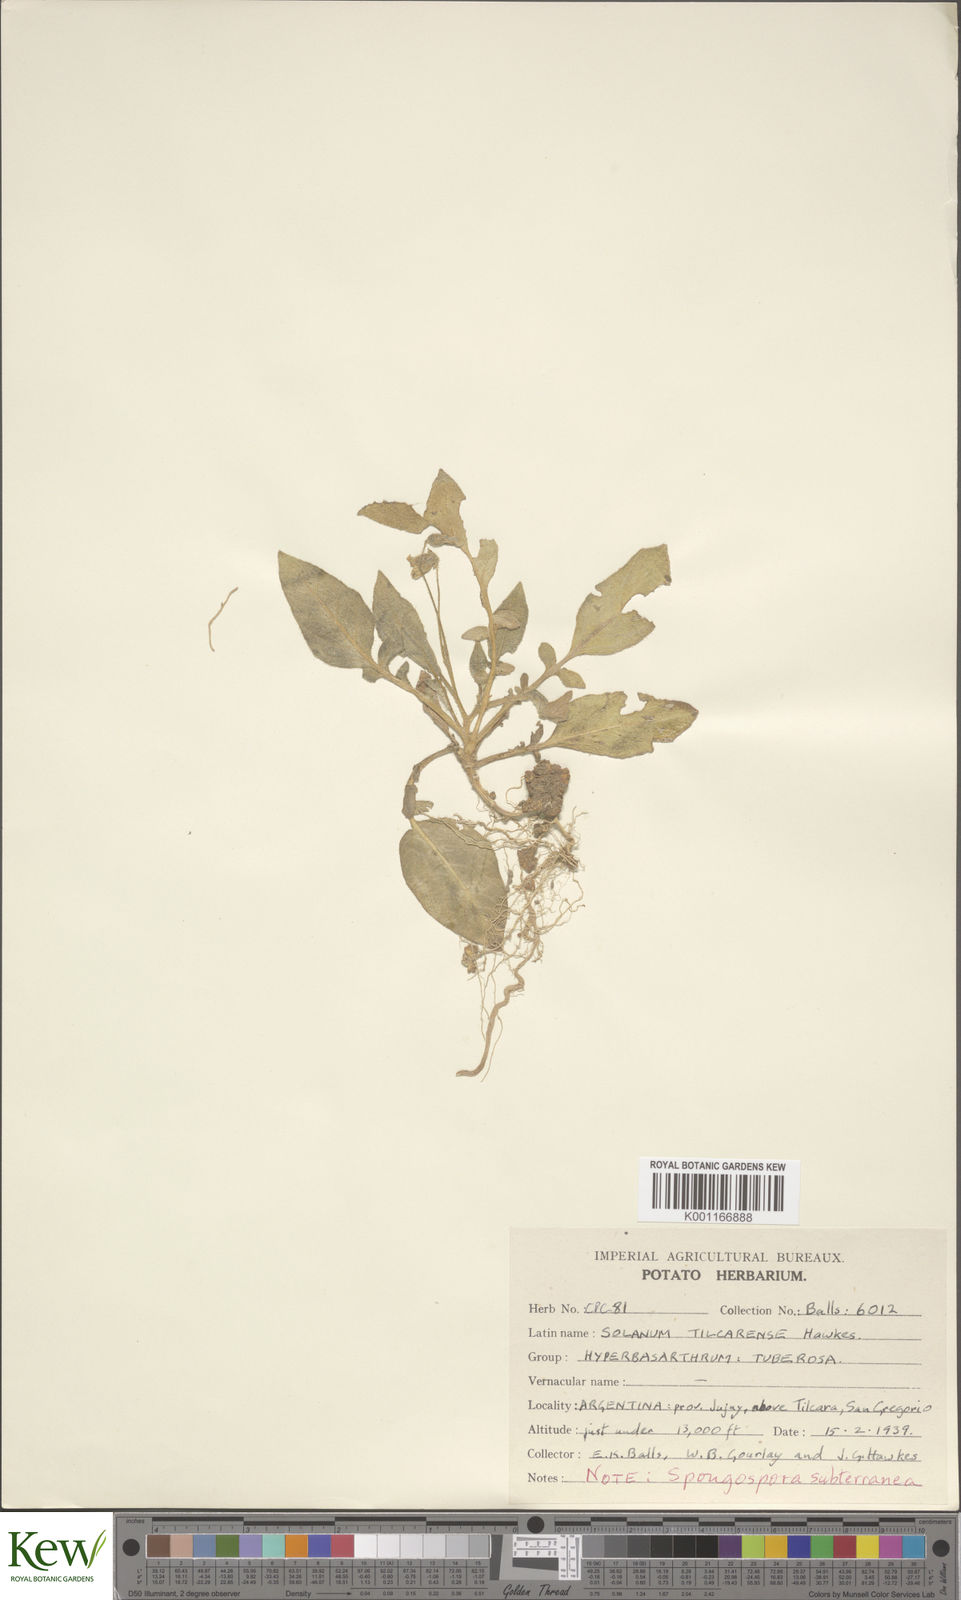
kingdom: Plantae
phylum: Tracheophyta
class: Magnoliopsida
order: Solanales
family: Solanaceae
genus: Solanum
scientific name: Solanum boliviense
